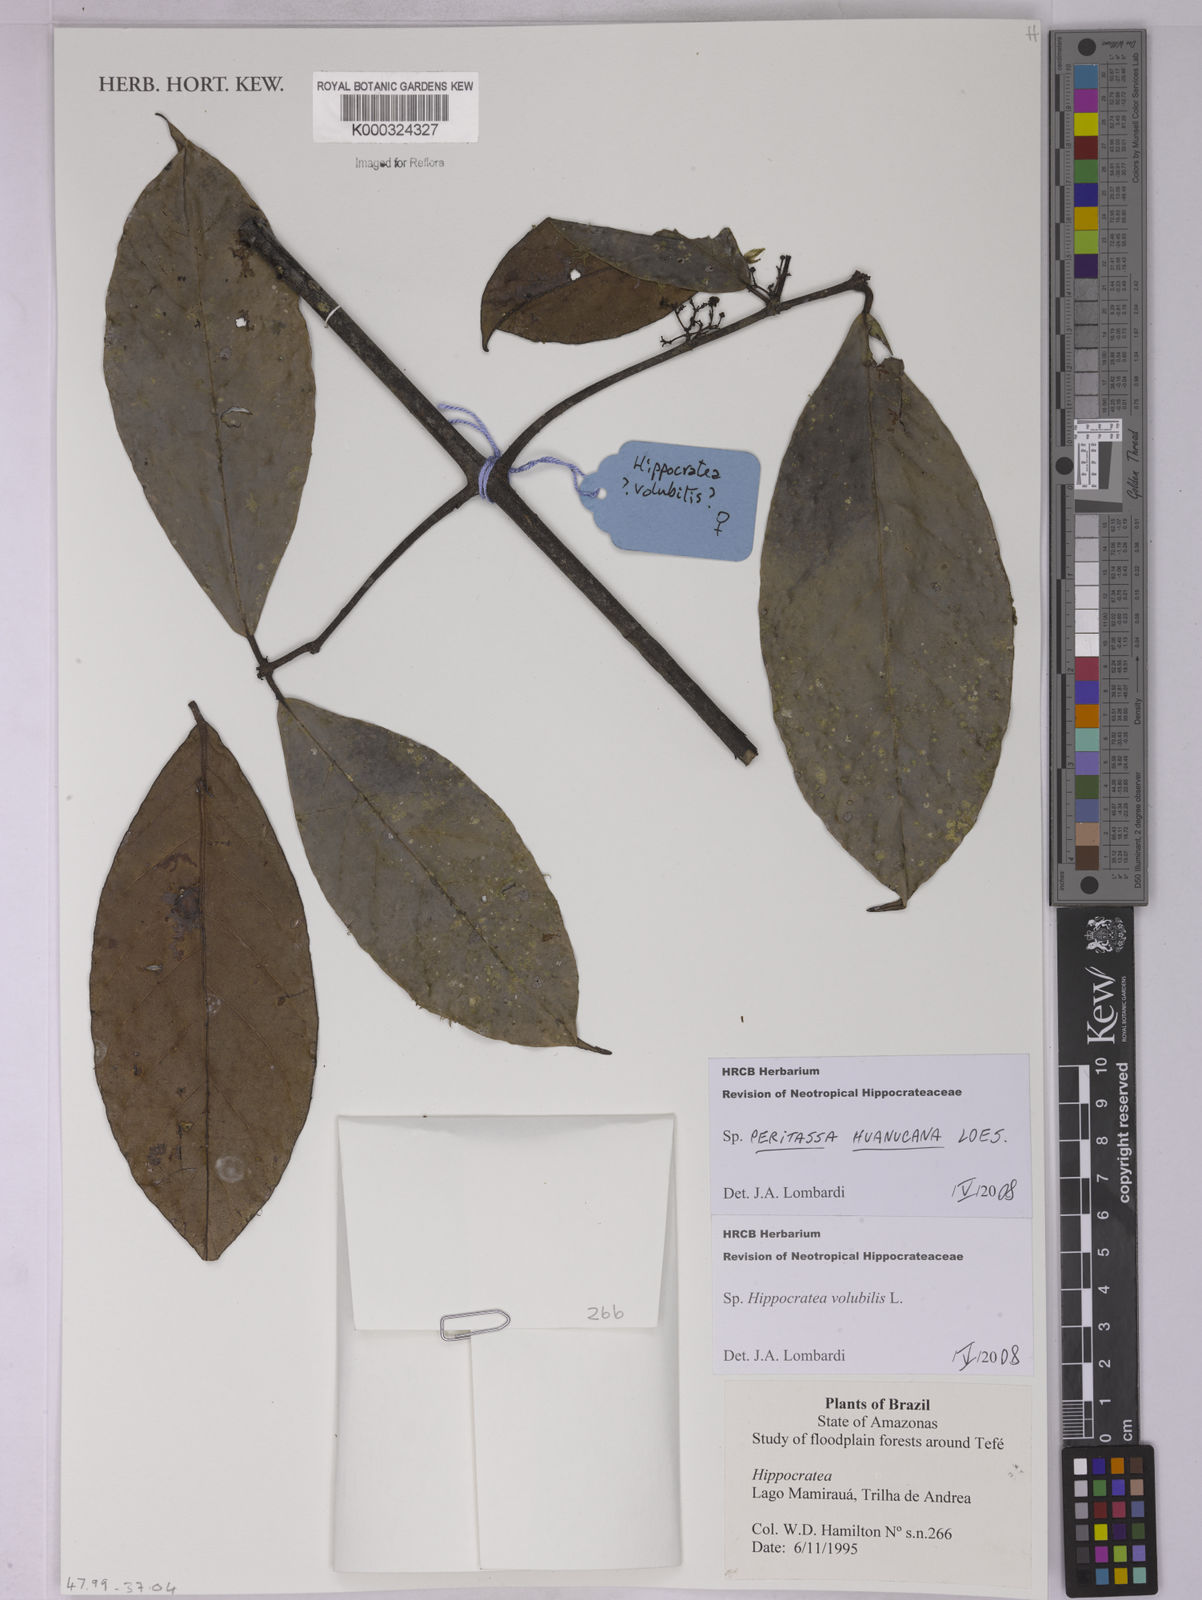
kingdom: Plantae
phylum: Tracheophyta
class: Magnoliopsida
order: Celastrales
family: Celastraceae
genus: Peritassa
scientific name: Peritassa huanucana
